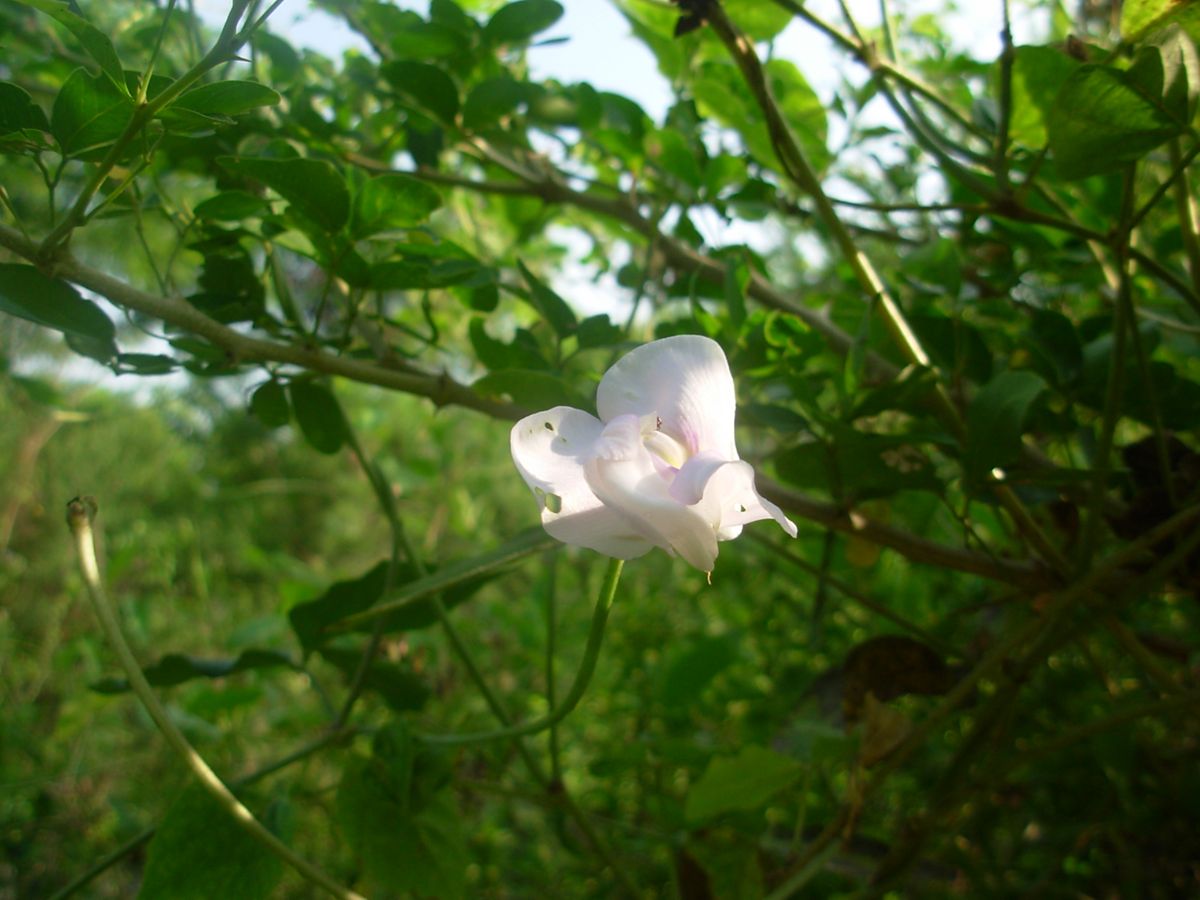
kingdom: Plantae
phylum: Tracheophyta
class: Magnoliopsida
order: Fabales
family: Fabaceae
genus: Helicotropis
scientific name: Helicotropis linearis
